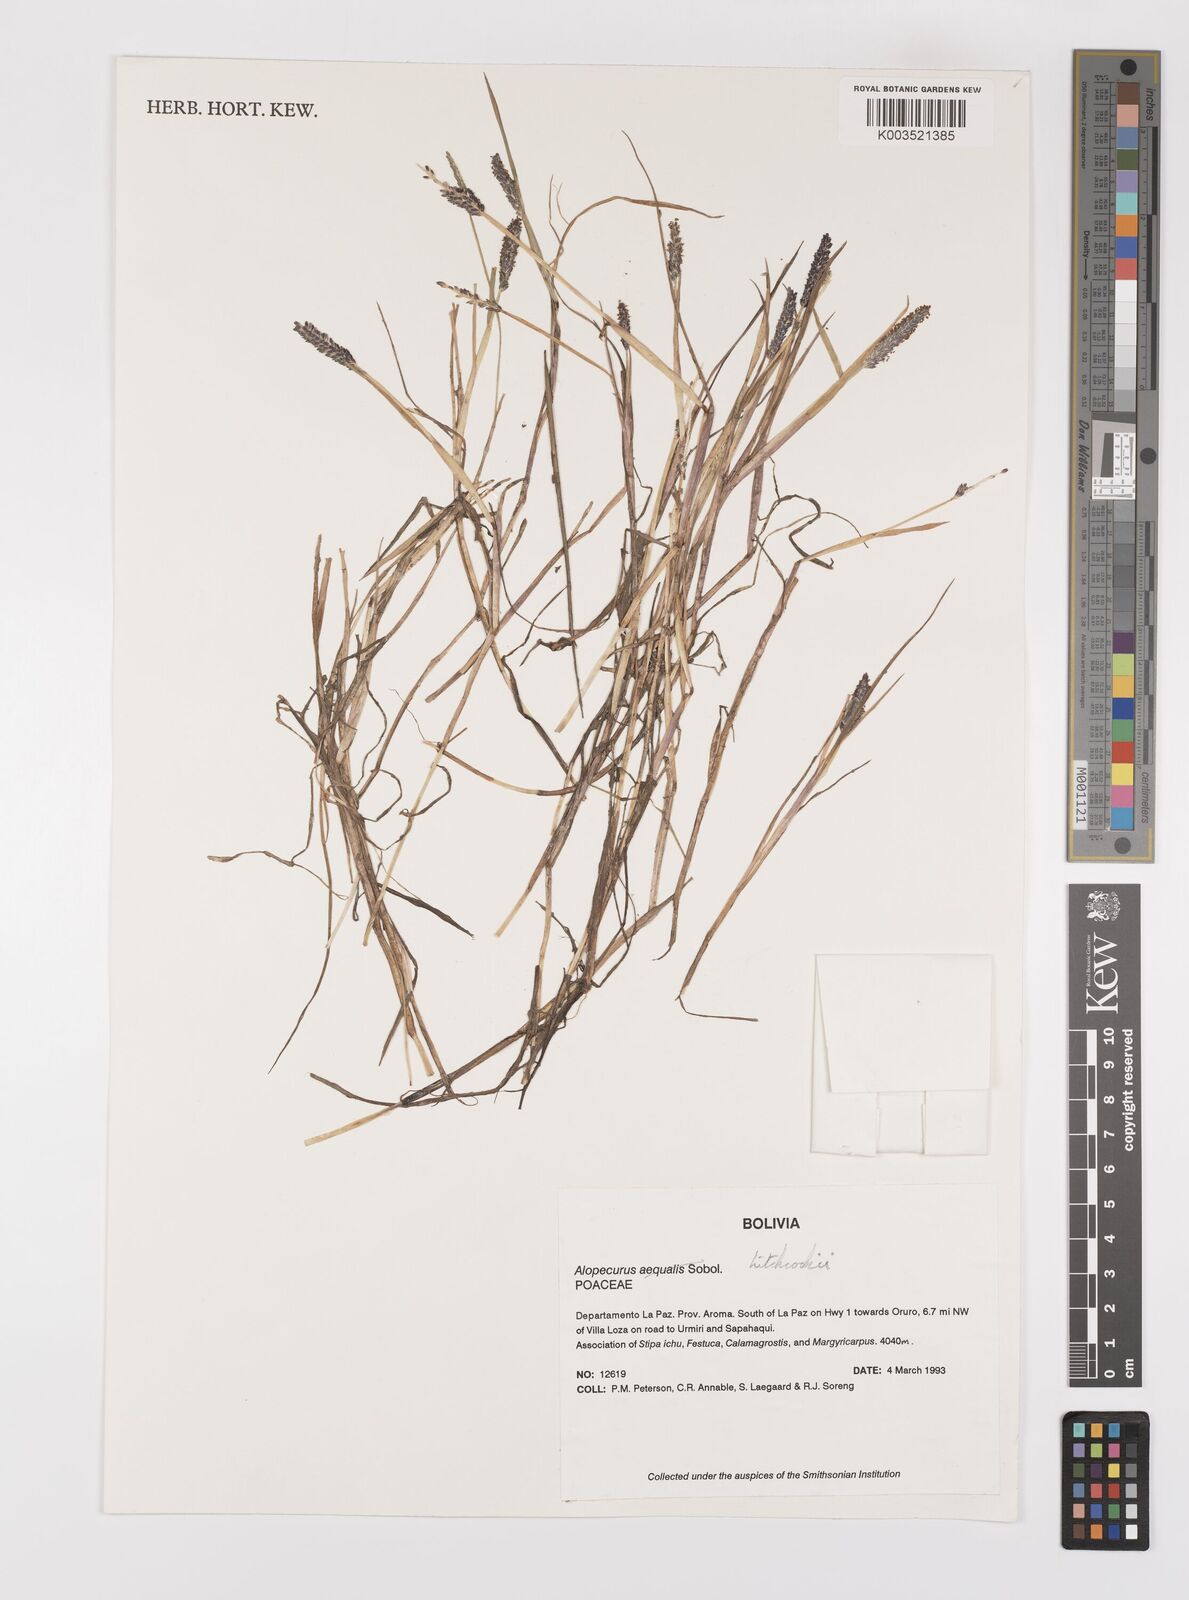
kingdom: Plantae
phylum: Tracheophyta
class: Liliopsida
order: Poales
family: Poaceae
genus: Alopecurus
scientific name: Alopecurus hitchcockii
